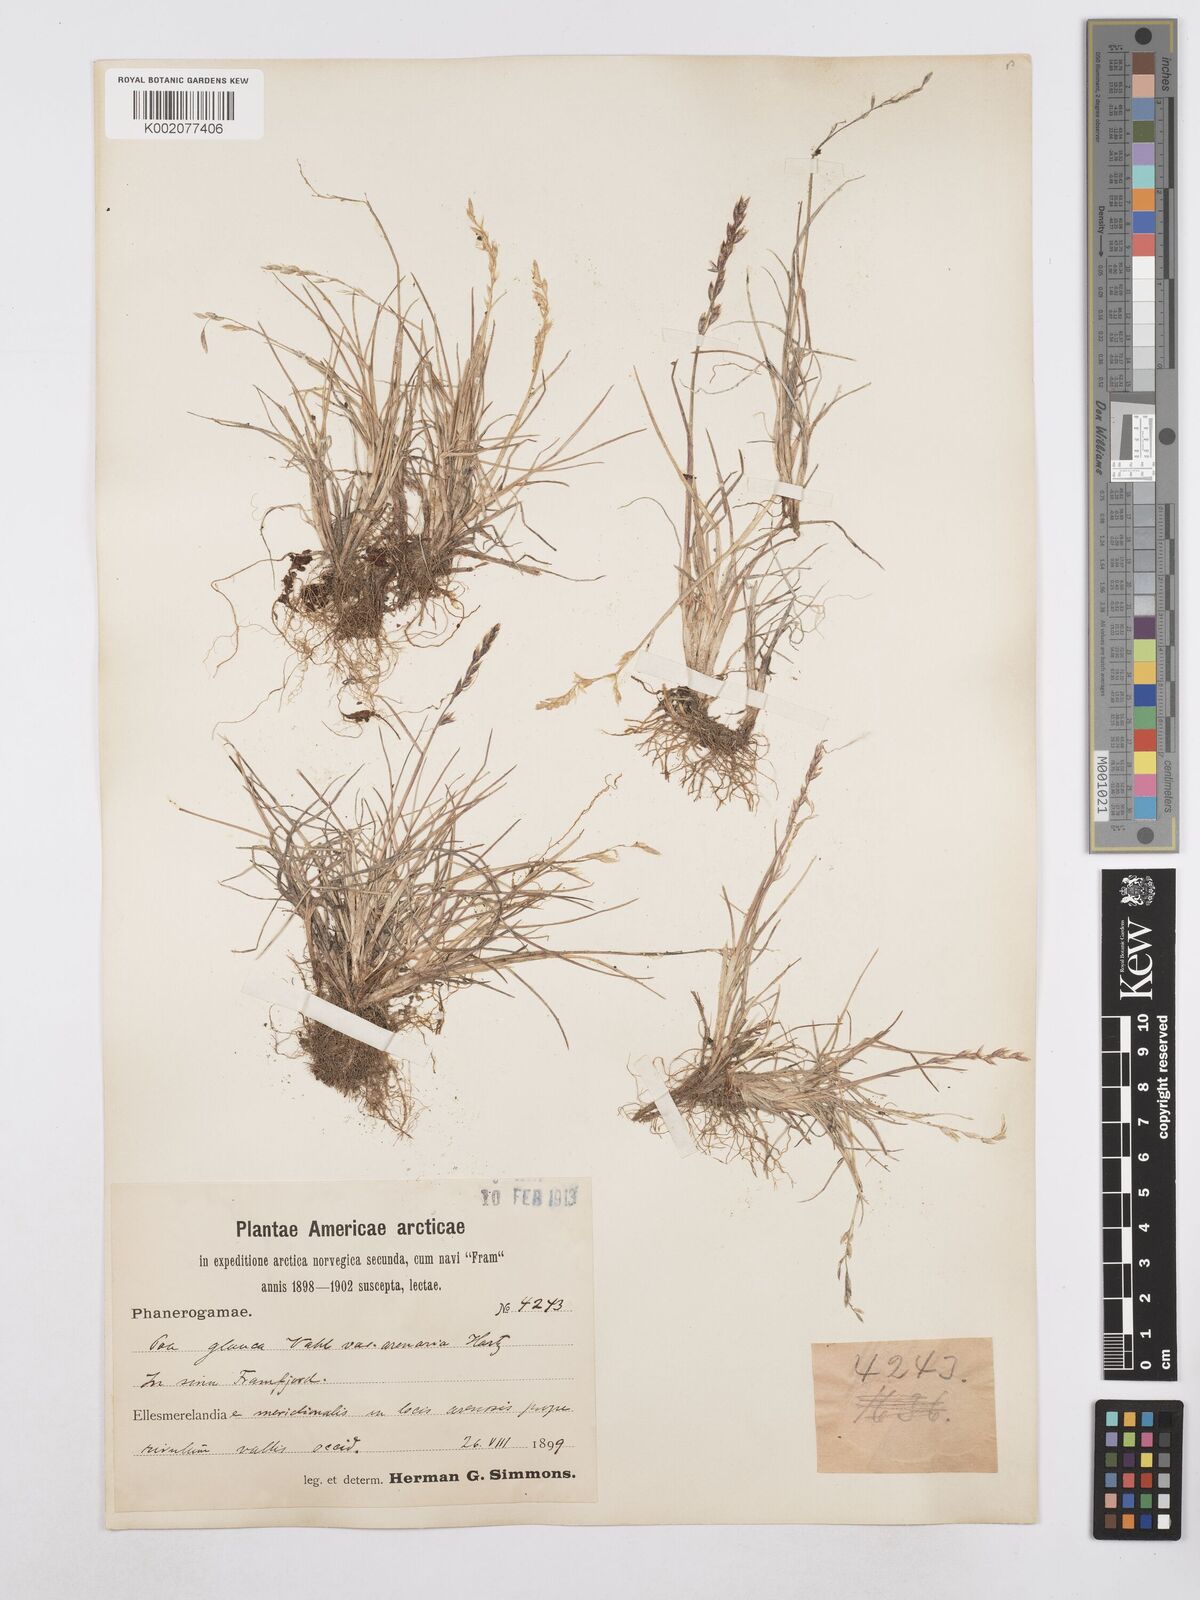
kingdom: Plantae
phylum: Tracheophyta
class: Liliopsida
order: Poales
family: Poaceae
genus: Poa
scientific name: Poa glauca
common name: Glaucous bluegrass
